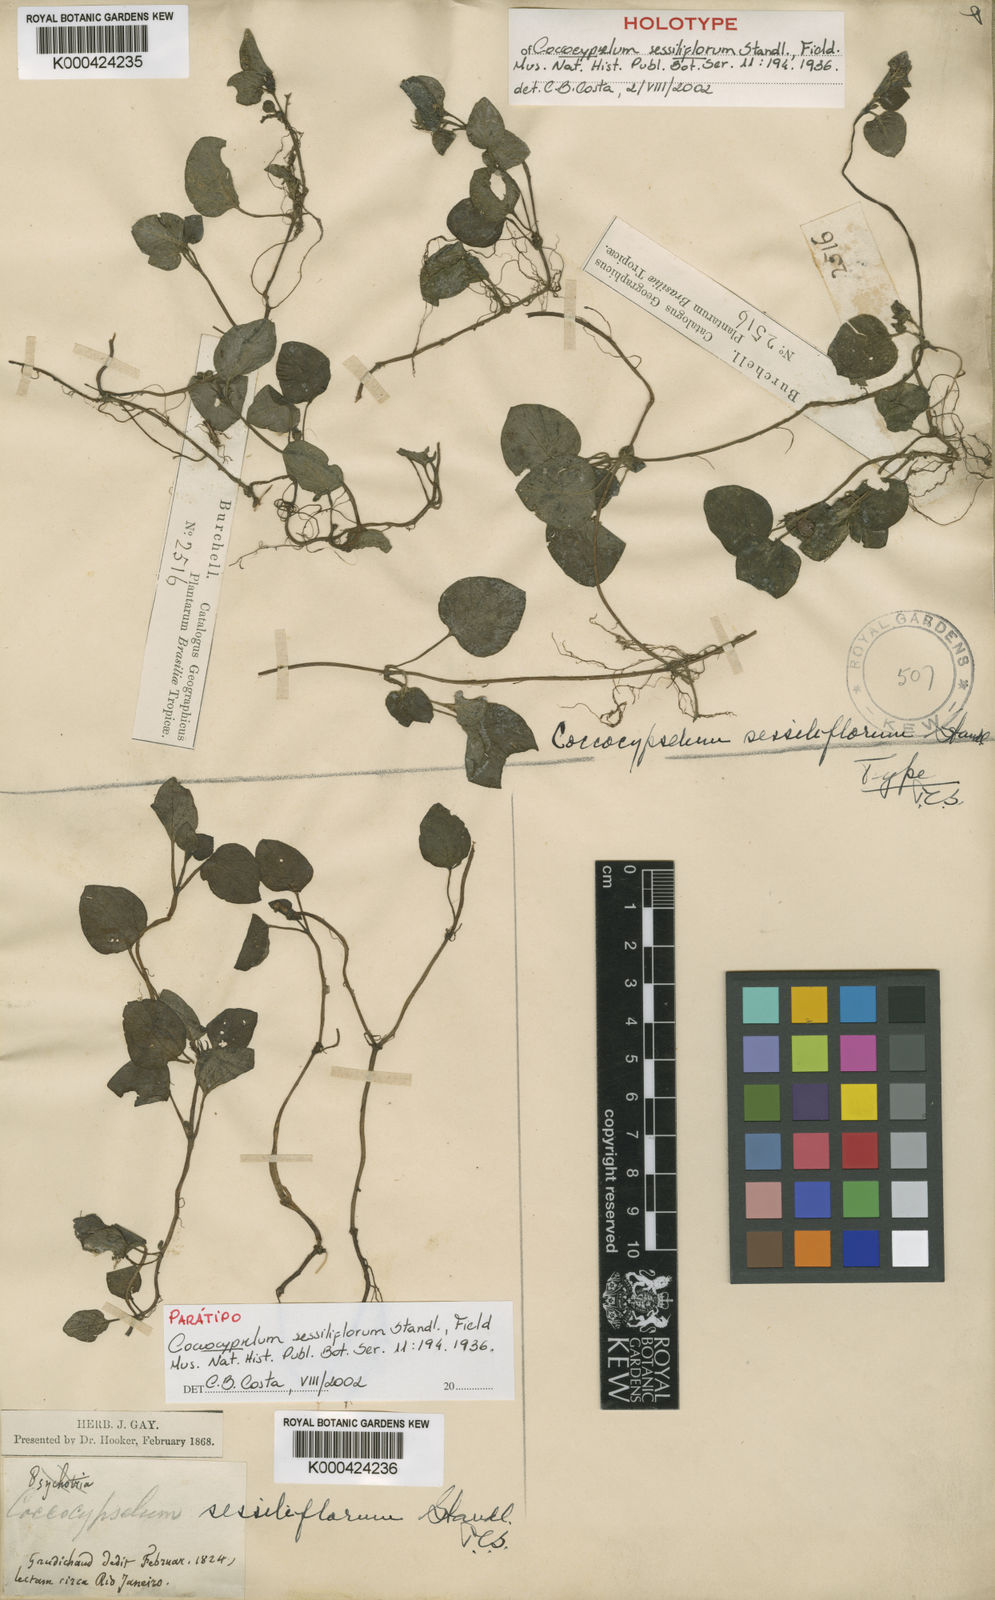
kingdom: Plantae
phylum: Tracheophyta
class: Magnoliopsida
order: Gentianales
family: Rubiaceae
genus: Coccocypselum
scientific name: Coccocypselum geophiloides
